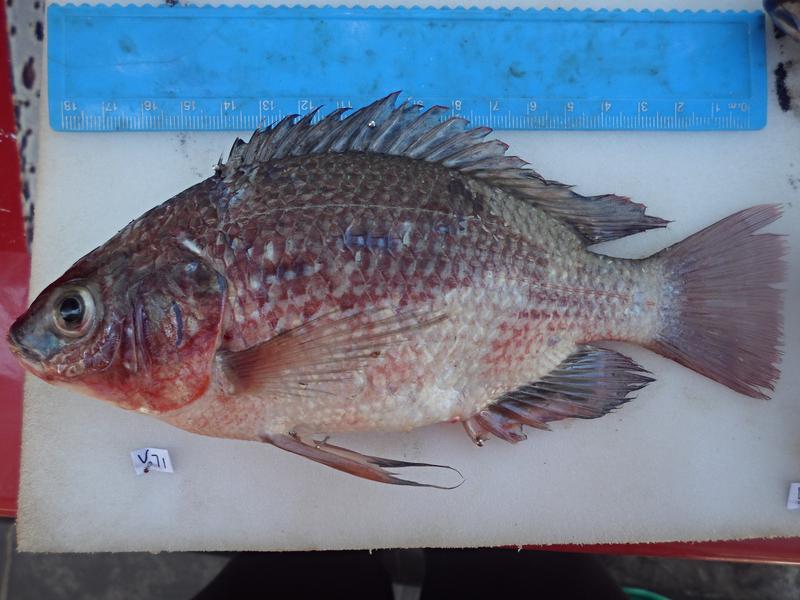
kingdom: Animalia
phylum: Chordata
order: Perciformes
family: Cichlidae
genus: Oreochromis
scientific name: Oreochromis esculentus
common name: Carp
